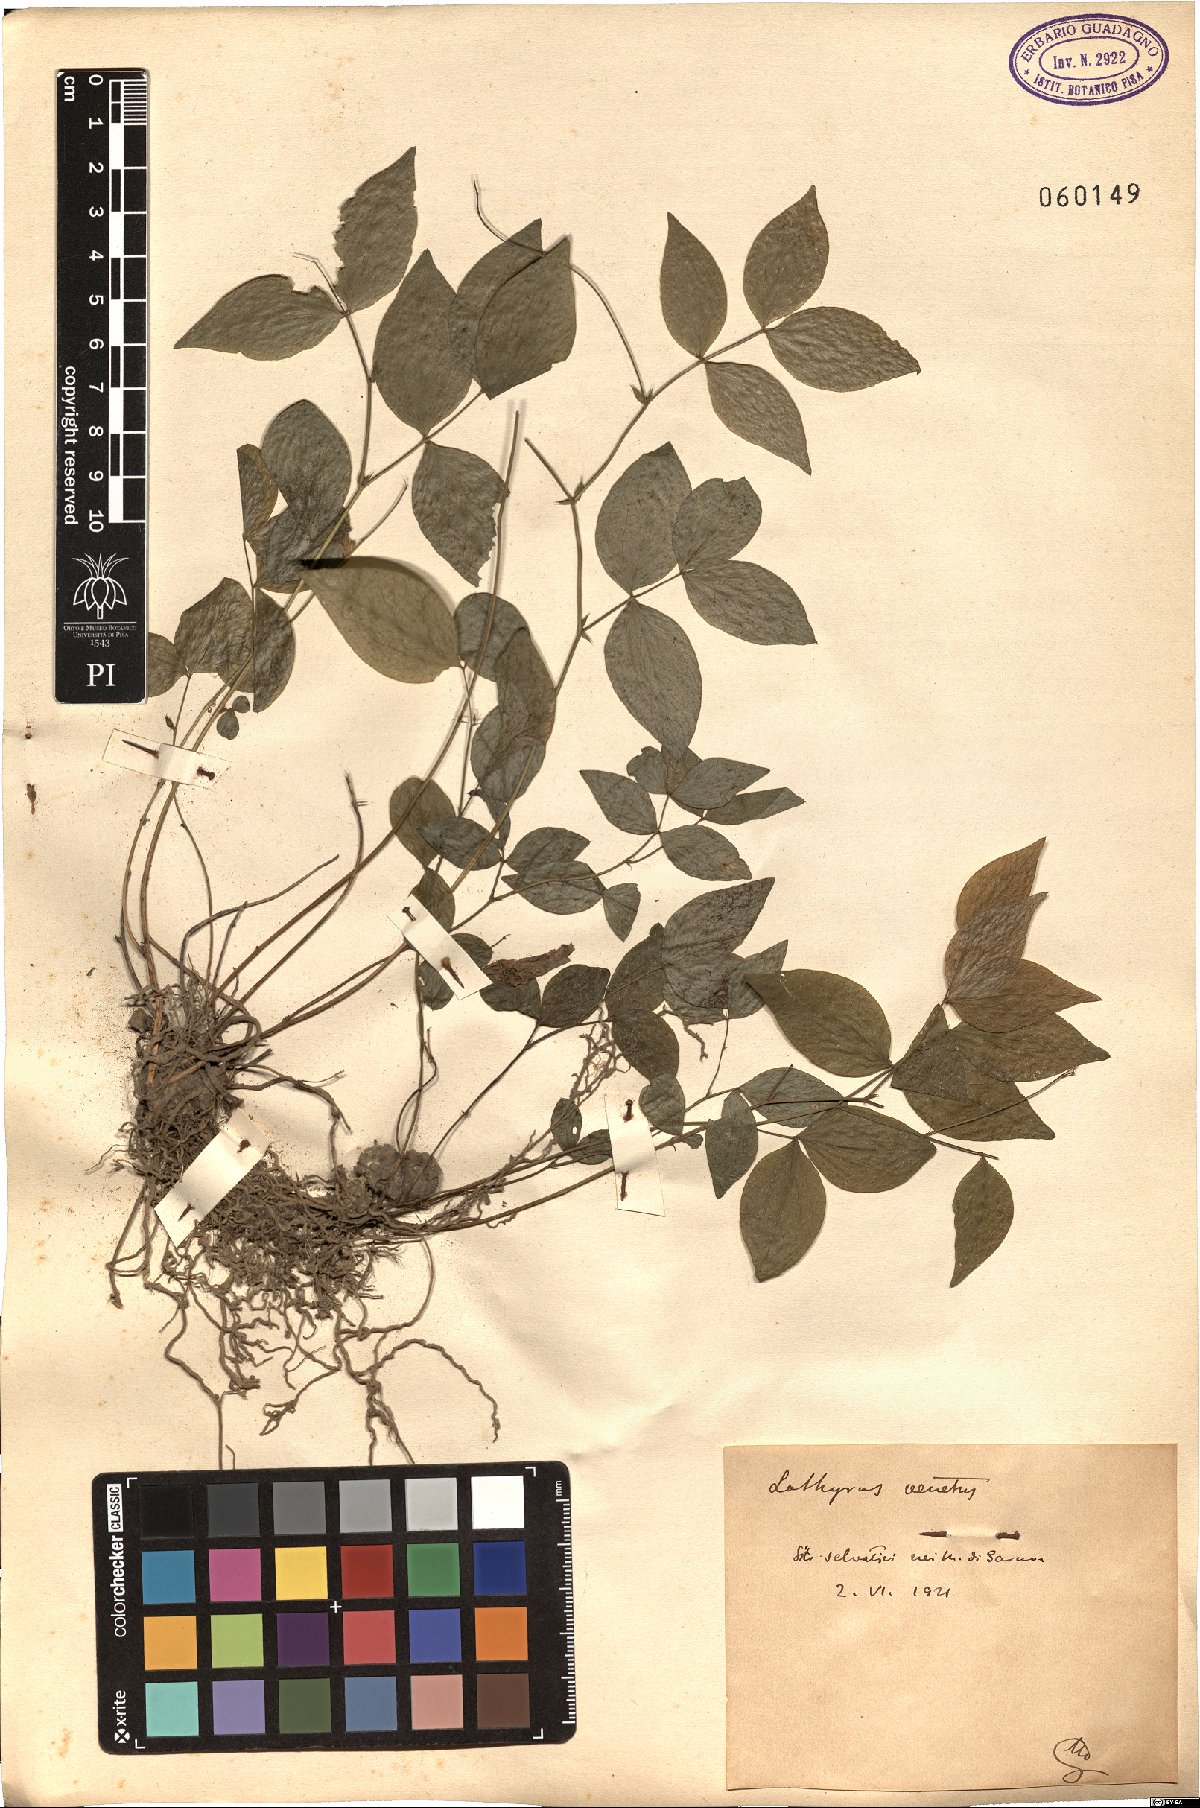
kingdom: Plantae
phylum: Tracheophyta
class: Magnoliopsida
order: Fabales
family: Fabaceae
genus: Lathyrus
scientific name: Lathyrus venetus
